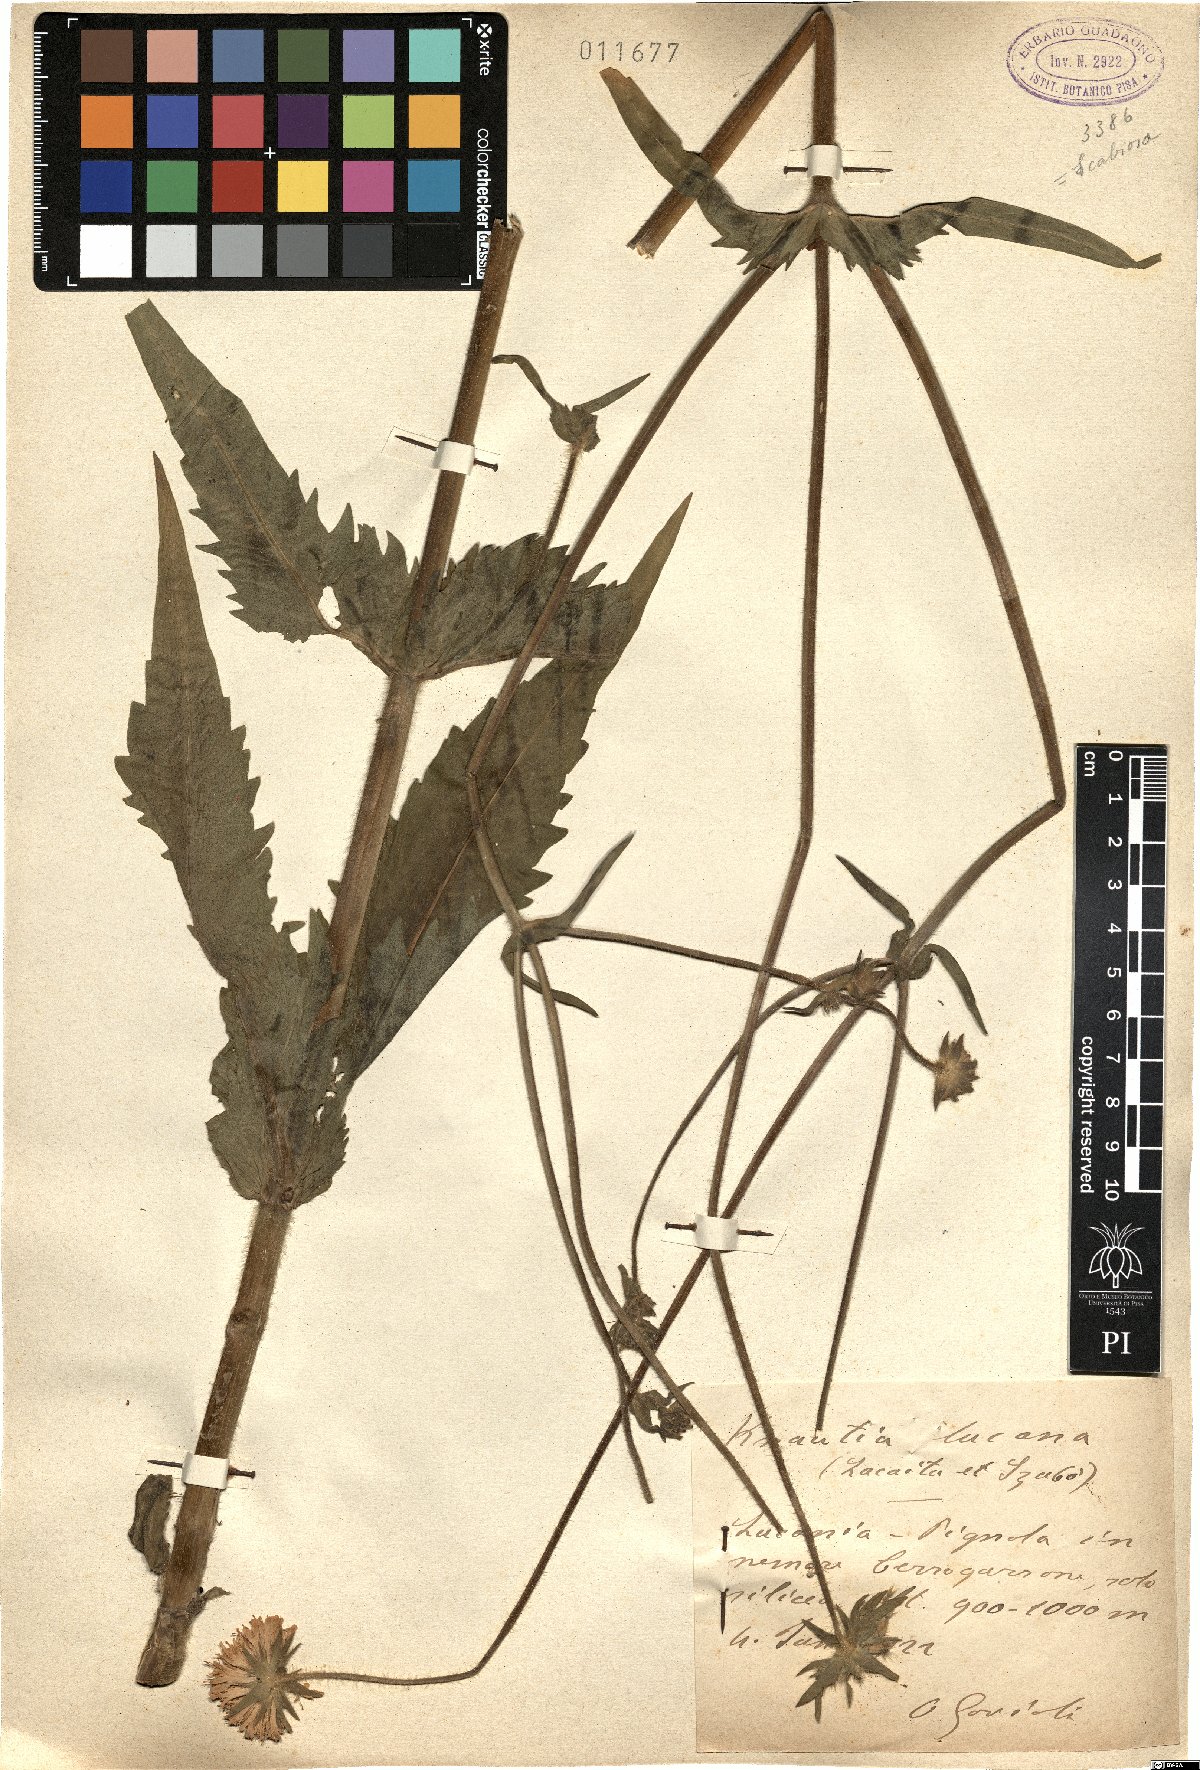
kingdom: Plantae
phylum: Tracheophyta
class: Magnoliopsida
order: Dipsacales
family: Caprifoliaceae
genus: Knautia
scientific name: Knautia lucana
